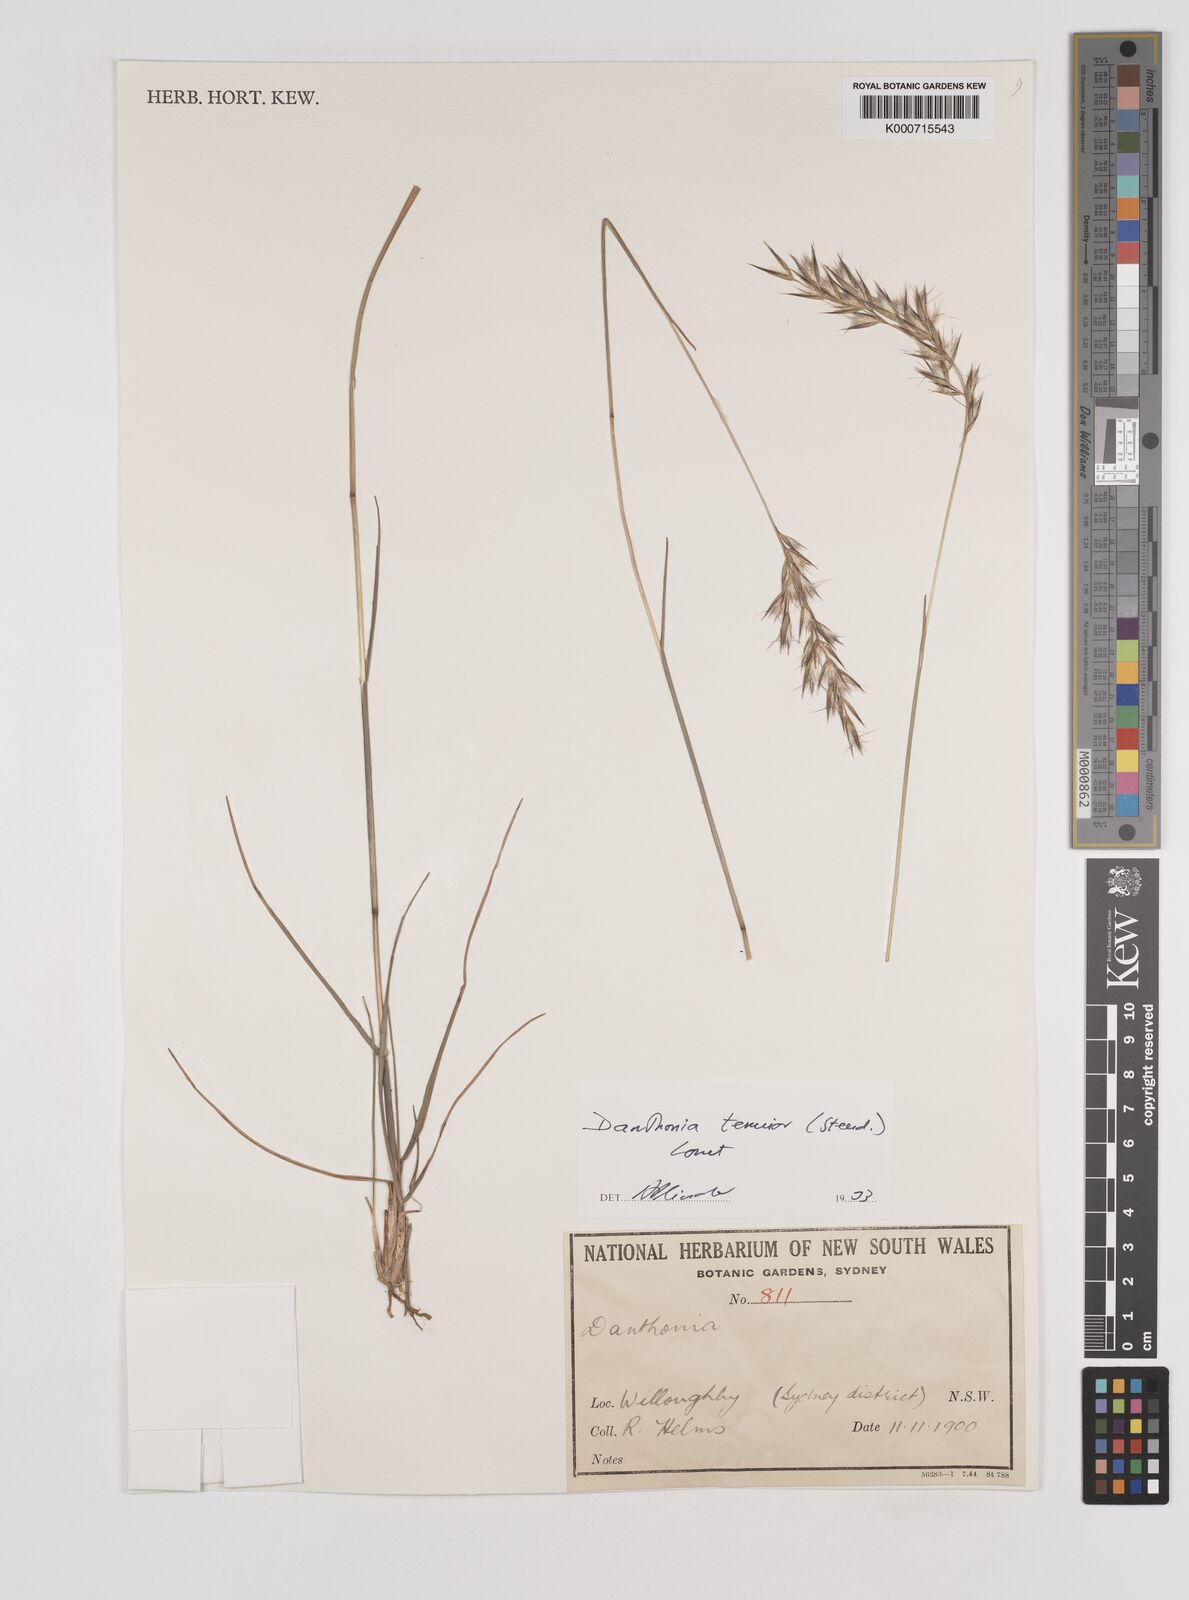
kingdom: Plantae
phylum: Tracheophyta
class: Liliopsida
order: Poales
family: Poaceae
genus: Rytidosperma
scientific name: Rytidosperma tenuius
